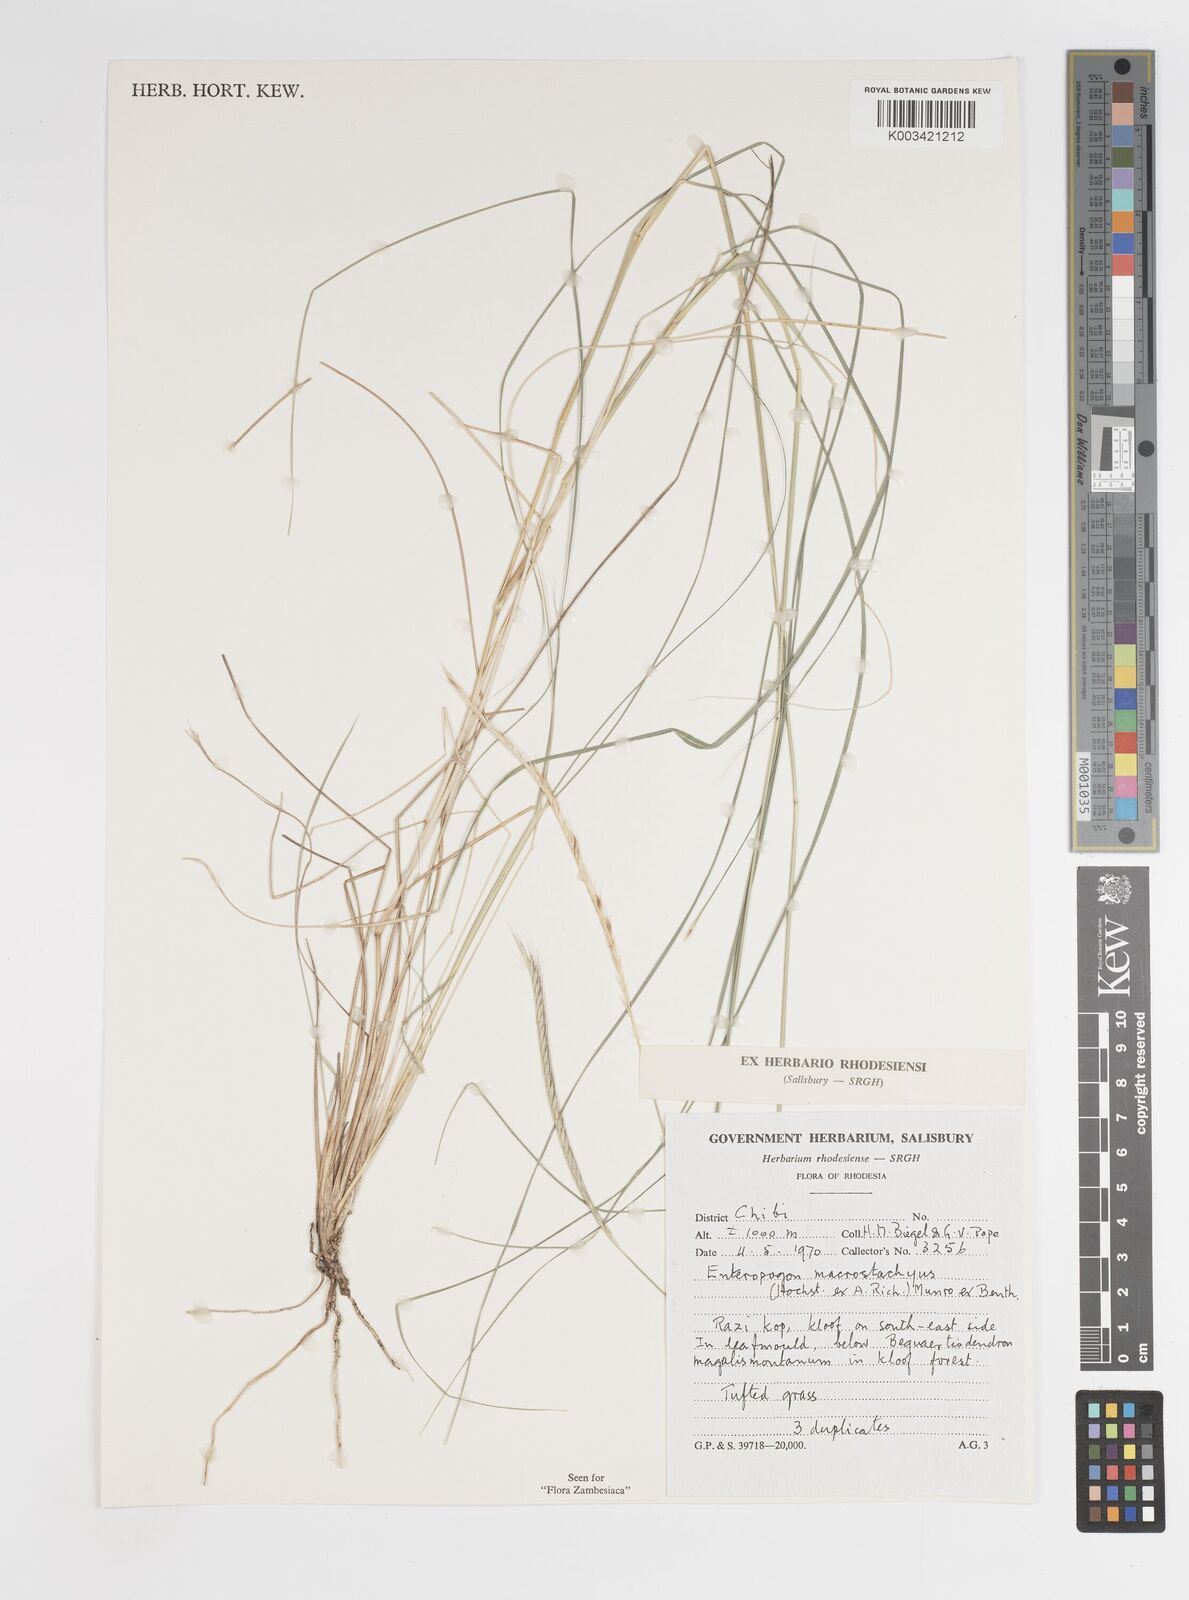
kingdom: Plantae
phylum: Tracheophyta
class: Liliopsida
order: Poales
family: Poaceae
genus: Enteropogon
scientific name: Enteropogon macrostachyus
